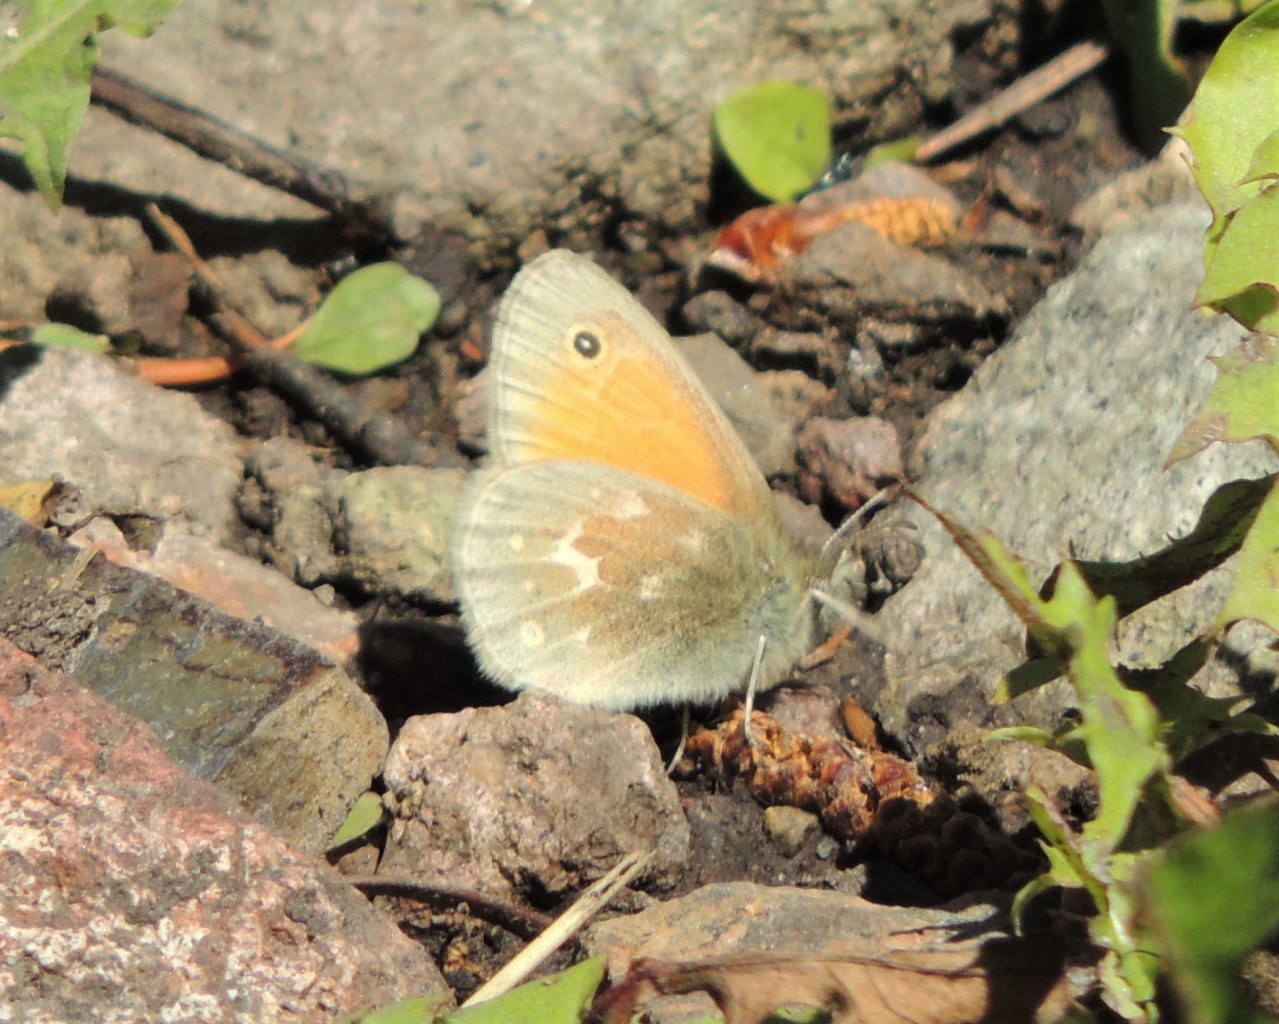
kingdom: Animalia
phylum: Arthropoda
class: Insecta
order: Lepidoptera
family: Nymphalidae
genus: Coenonympha
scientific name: Coenonympha tullia
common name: Large Heath
